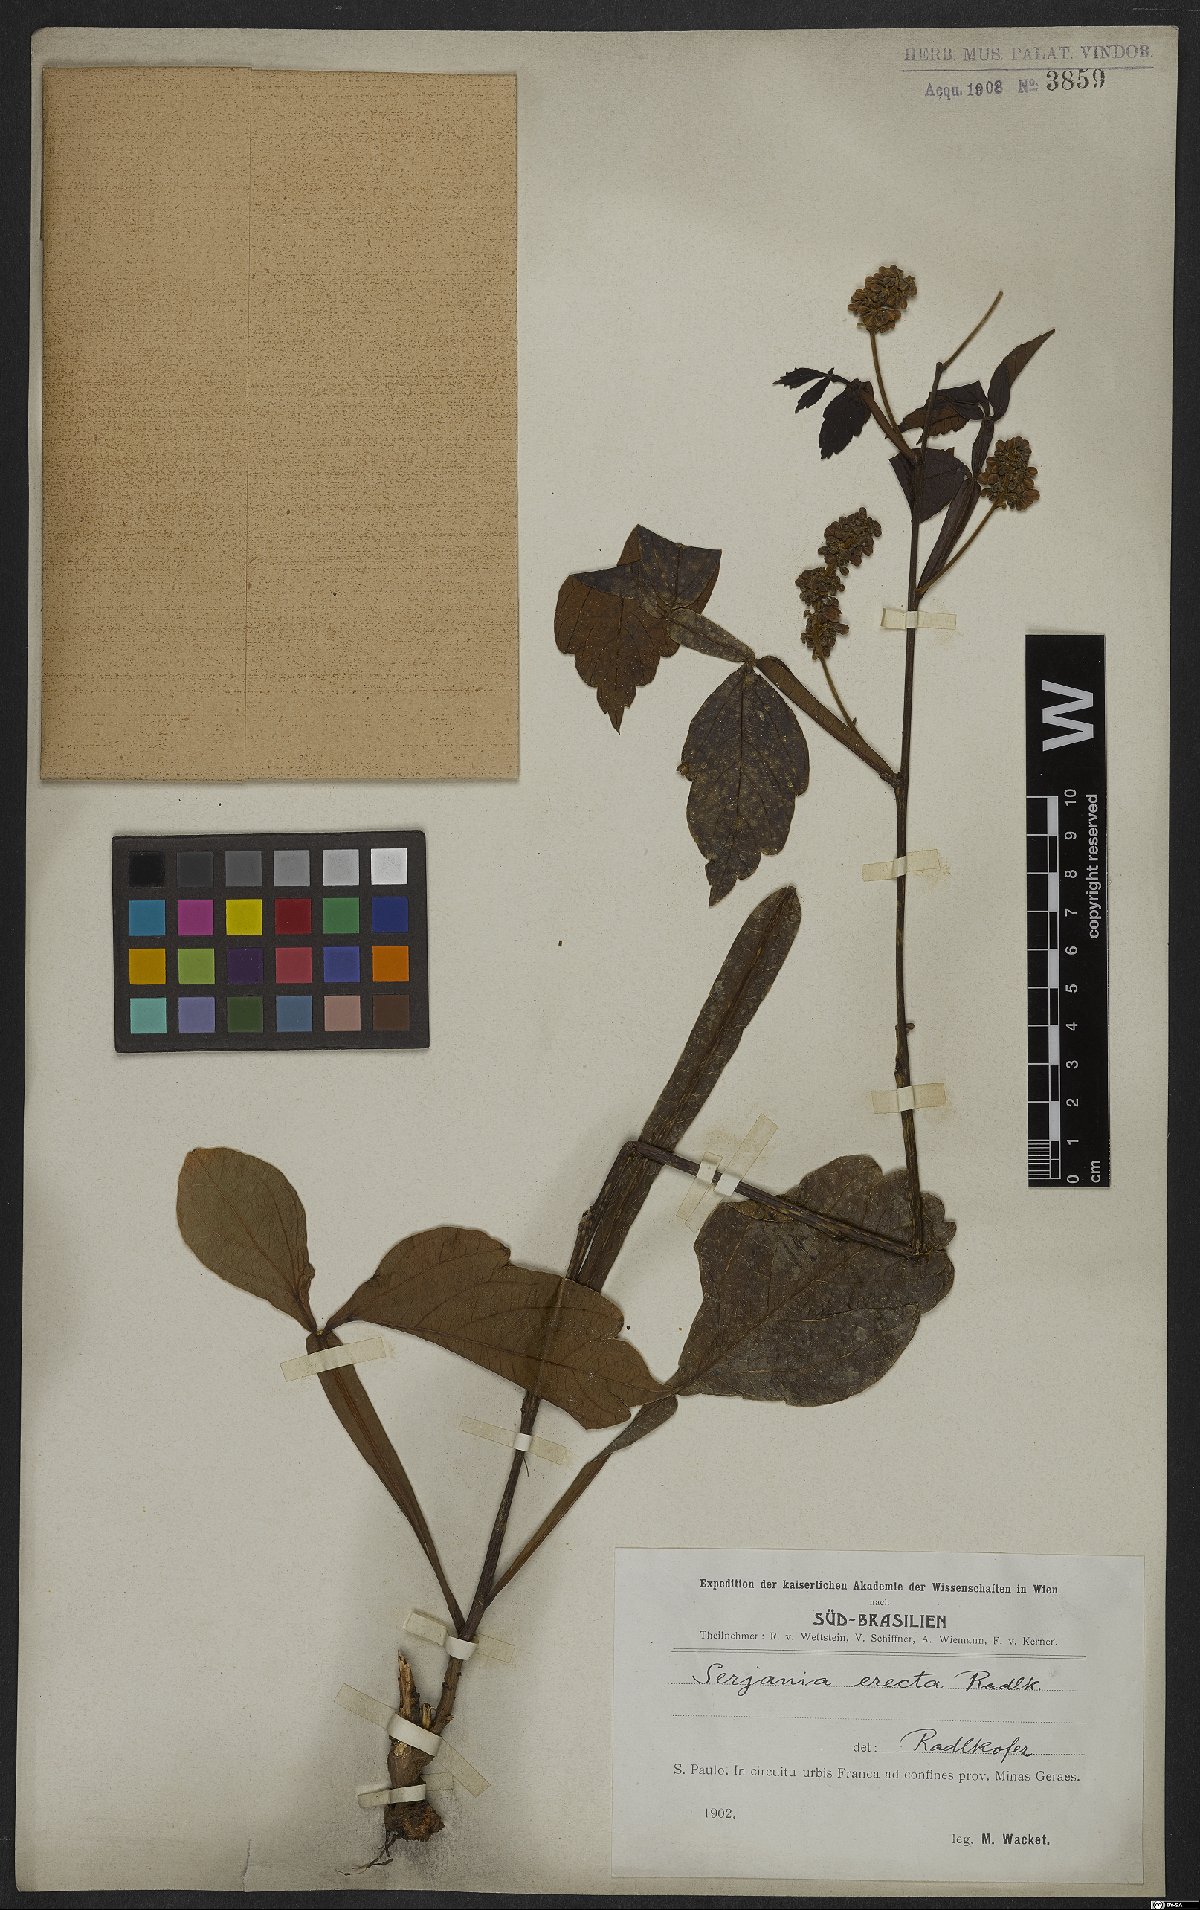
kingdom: Plantae
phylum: Tracheophyta
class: Magnoliopsida
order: Sapindales
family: Sapindaceae
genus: Serjania
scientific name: Serjania erecta
